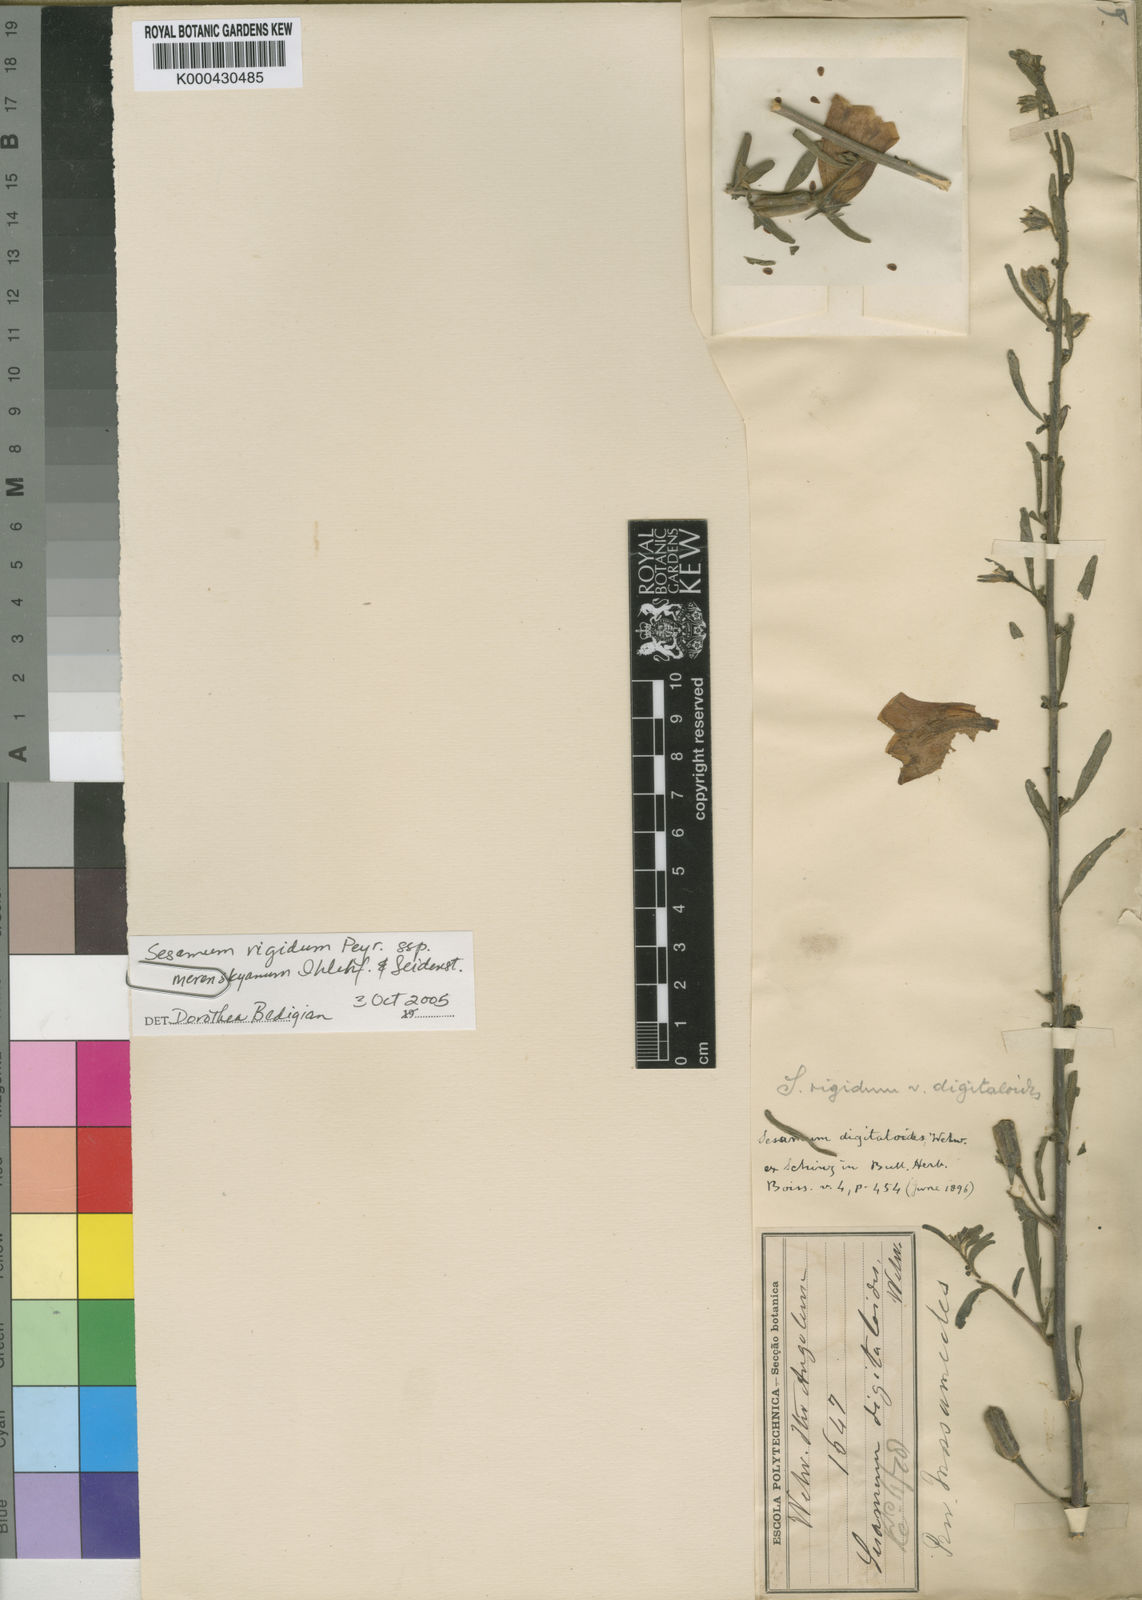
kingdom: Plantae
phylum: Tracheophyta
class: Magnoliopsida
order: Lamiales
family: Pedaliaceae
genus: Sesamum
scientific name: Sesamum schinzianum
